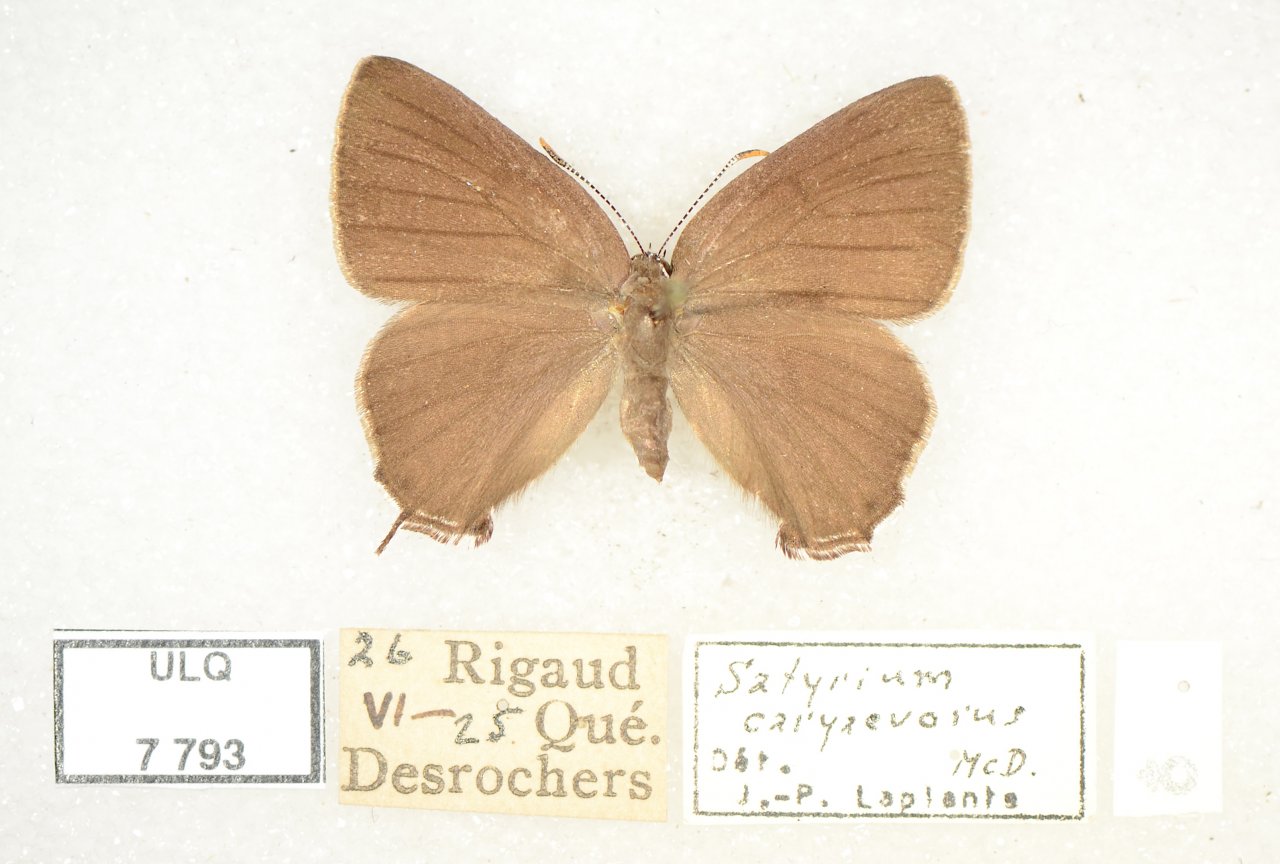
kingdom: Animalia
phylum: Arthropoda
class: Insecta
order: Lepidoptera
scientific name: Lepidoptera
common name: Butterflies
